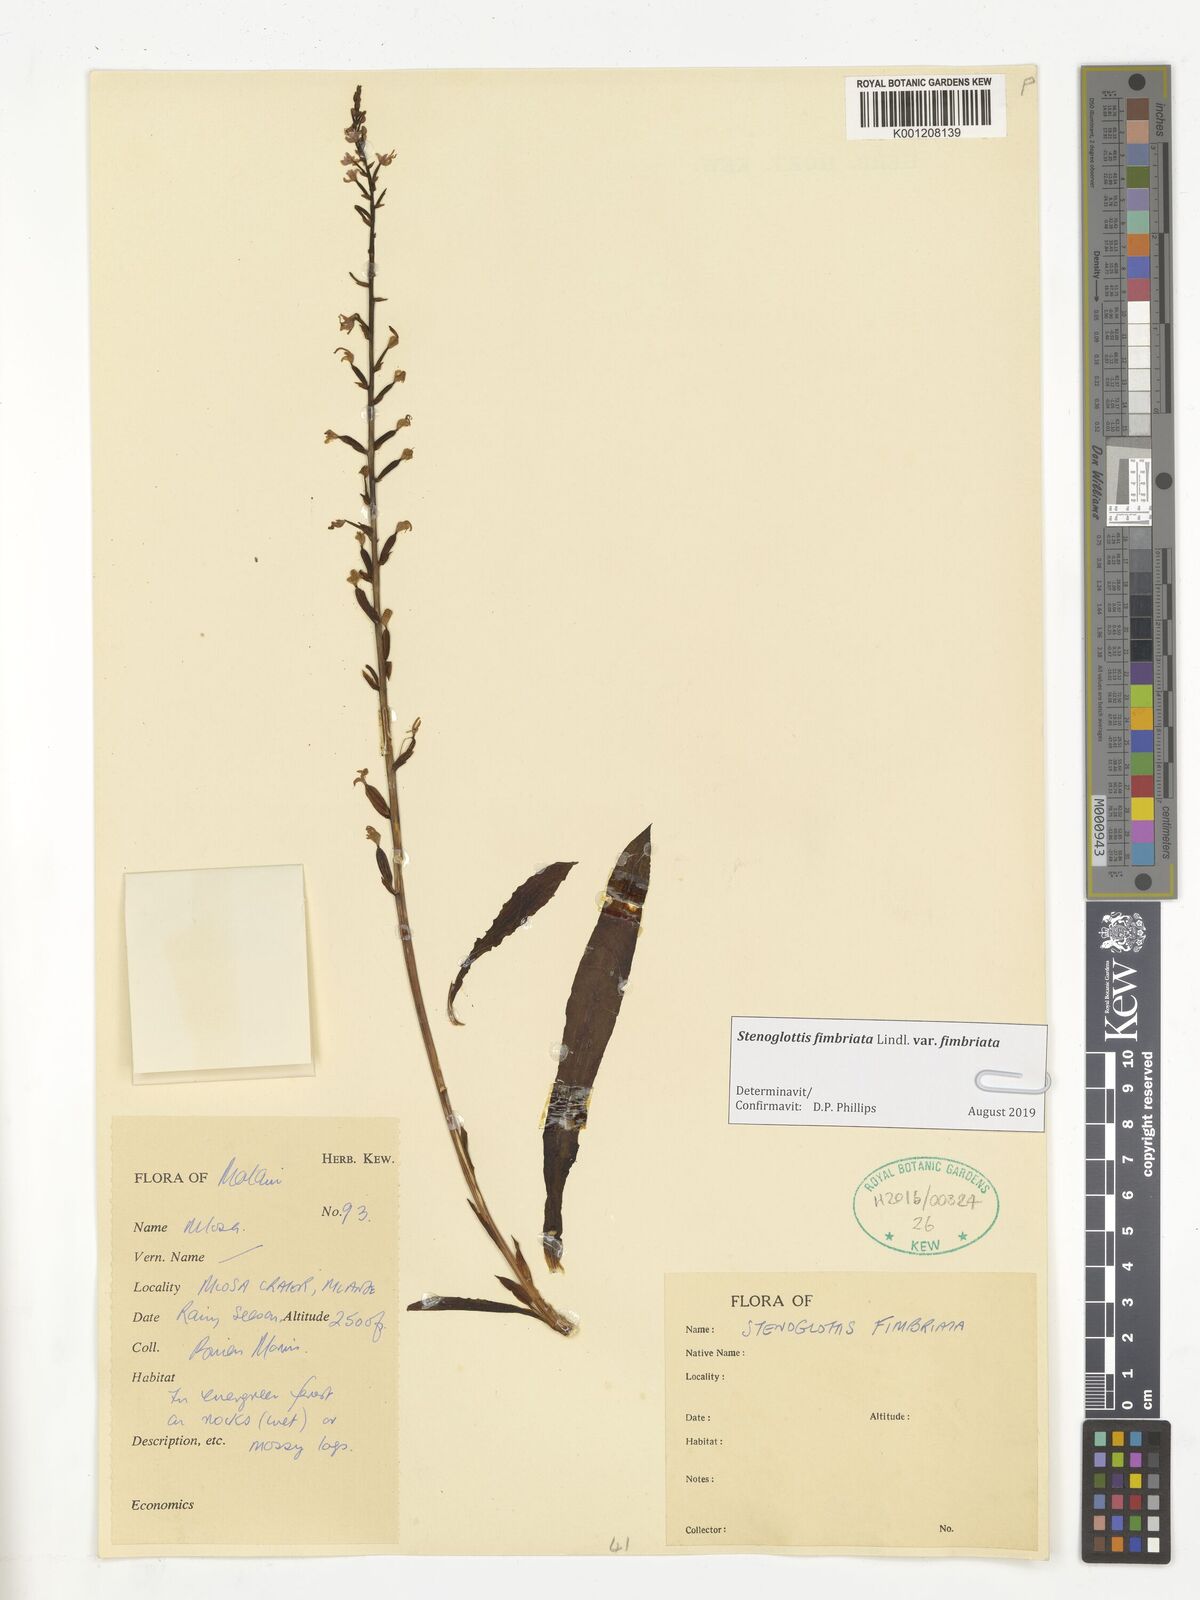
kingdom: Plantae
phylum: Tracheophyta
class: Liliopsida
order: Asparagales
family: Orchidaceae
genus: Stenoglottis
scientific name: Stenoglottis fimbriata
